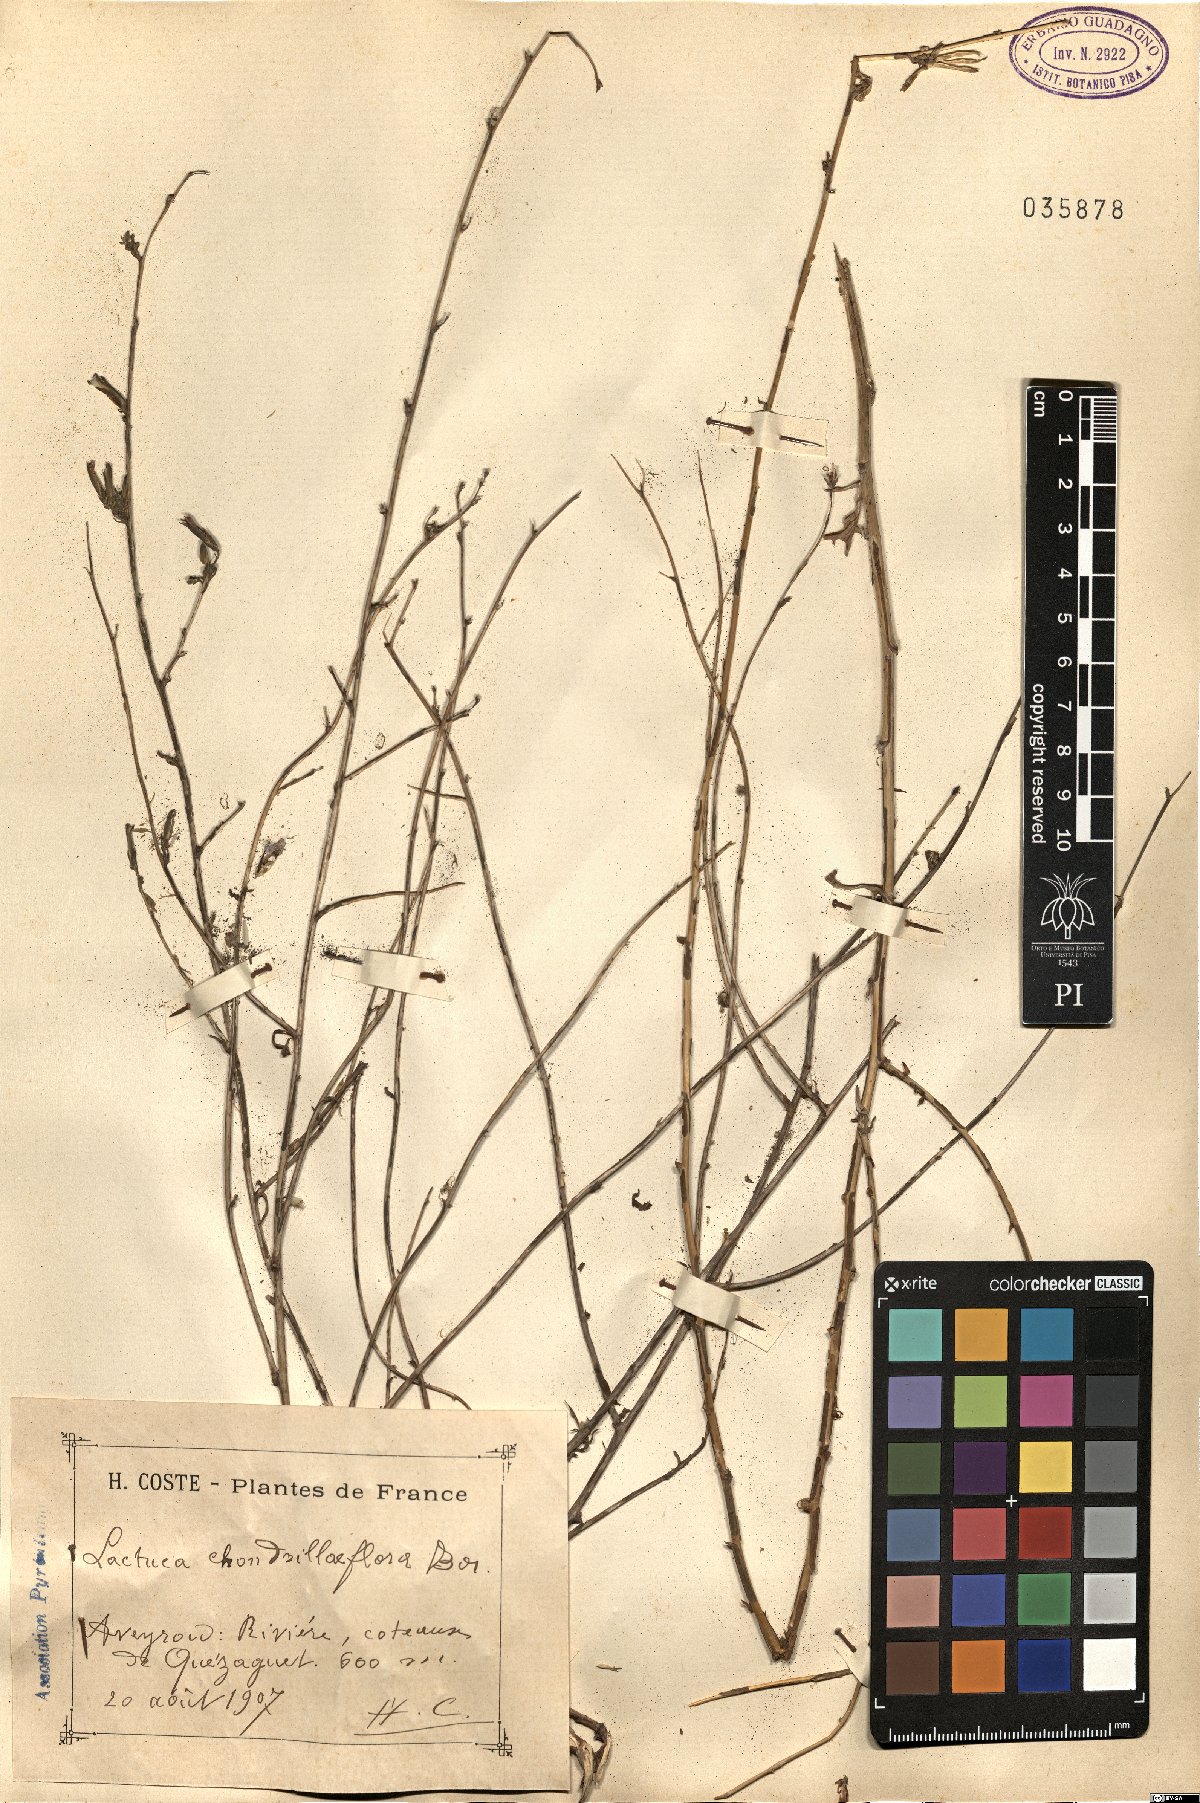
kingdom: Plantae
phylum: Tracheophyta
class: Magnoliopsida
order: Asterales
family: Asteraceae
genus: Lactuca
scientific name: Lactuca viminea
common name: Pliant lettuce
